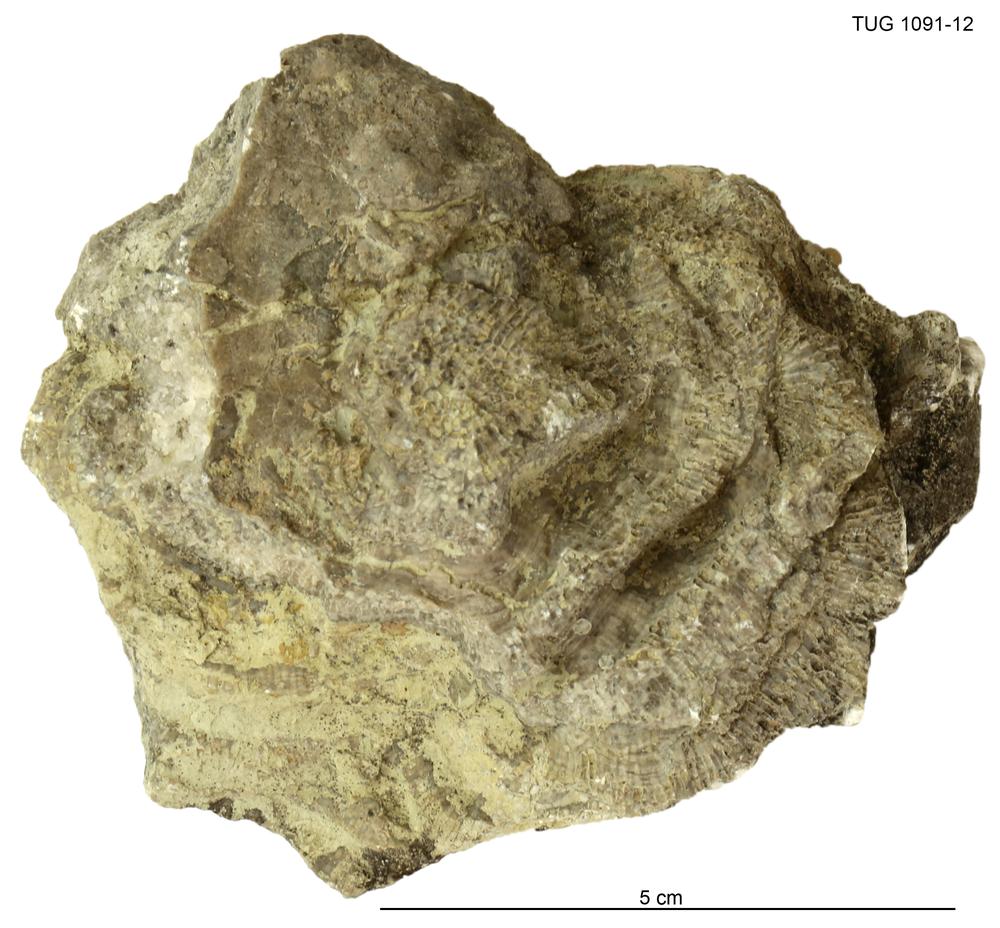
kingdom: Animalia
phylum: Cnidaria
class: Anthozoa
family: Theciidae
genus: Thecia
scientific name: Thecia
